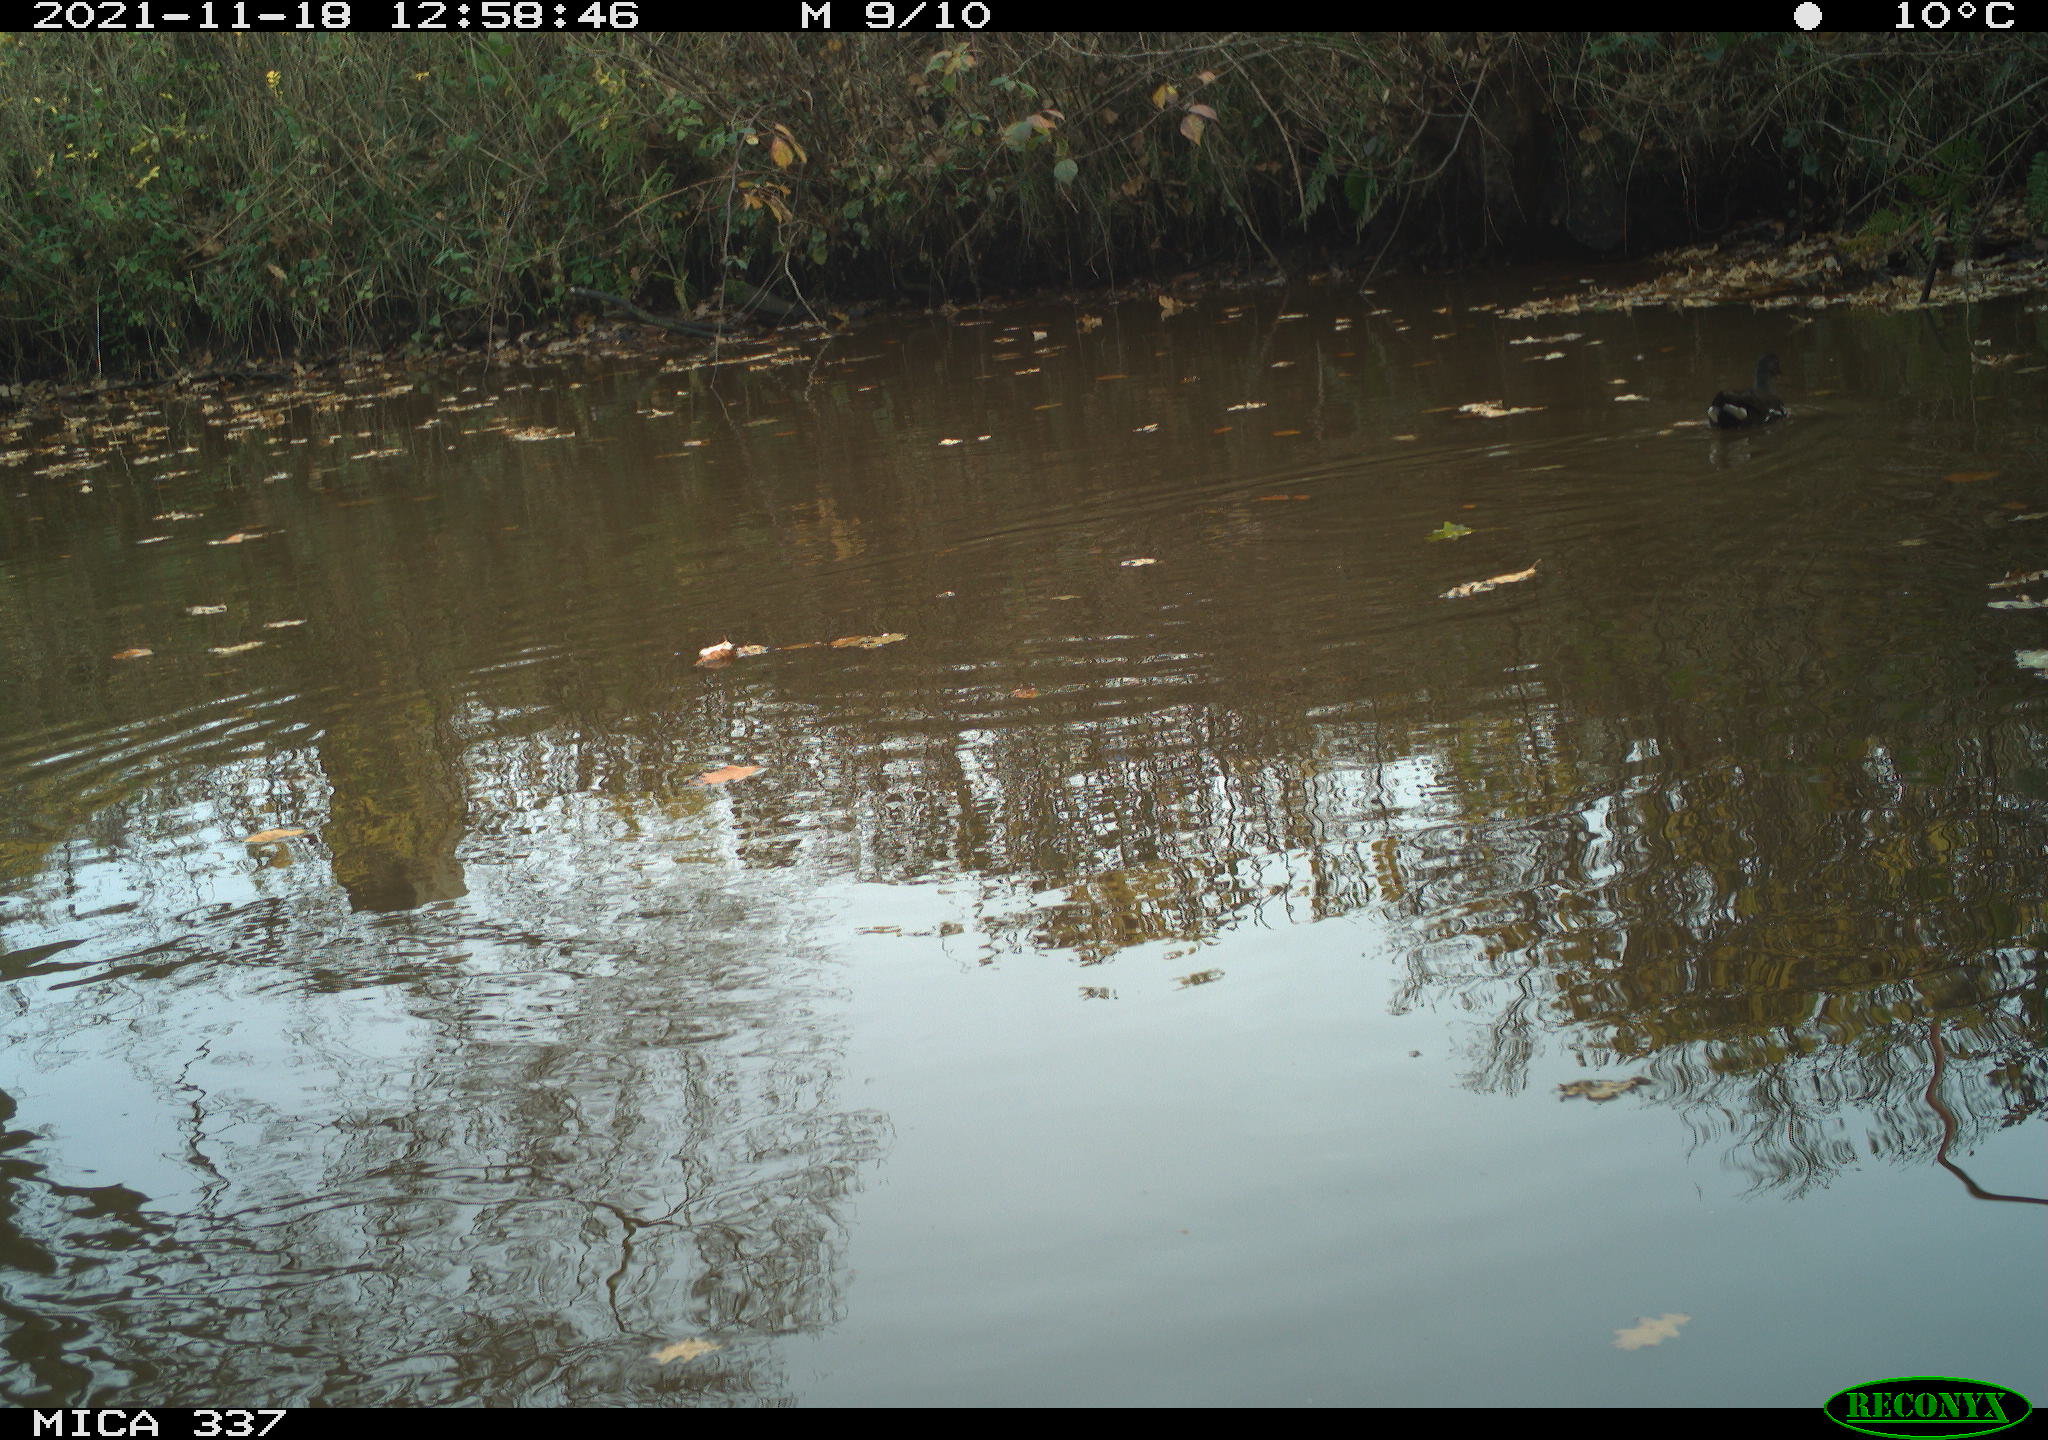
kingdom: Animalia
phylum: Chordata
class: Aves
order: Gruiformes
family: Rallidae
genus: Gallinula
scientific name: Gallinula chloropus
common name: Common moorhen
